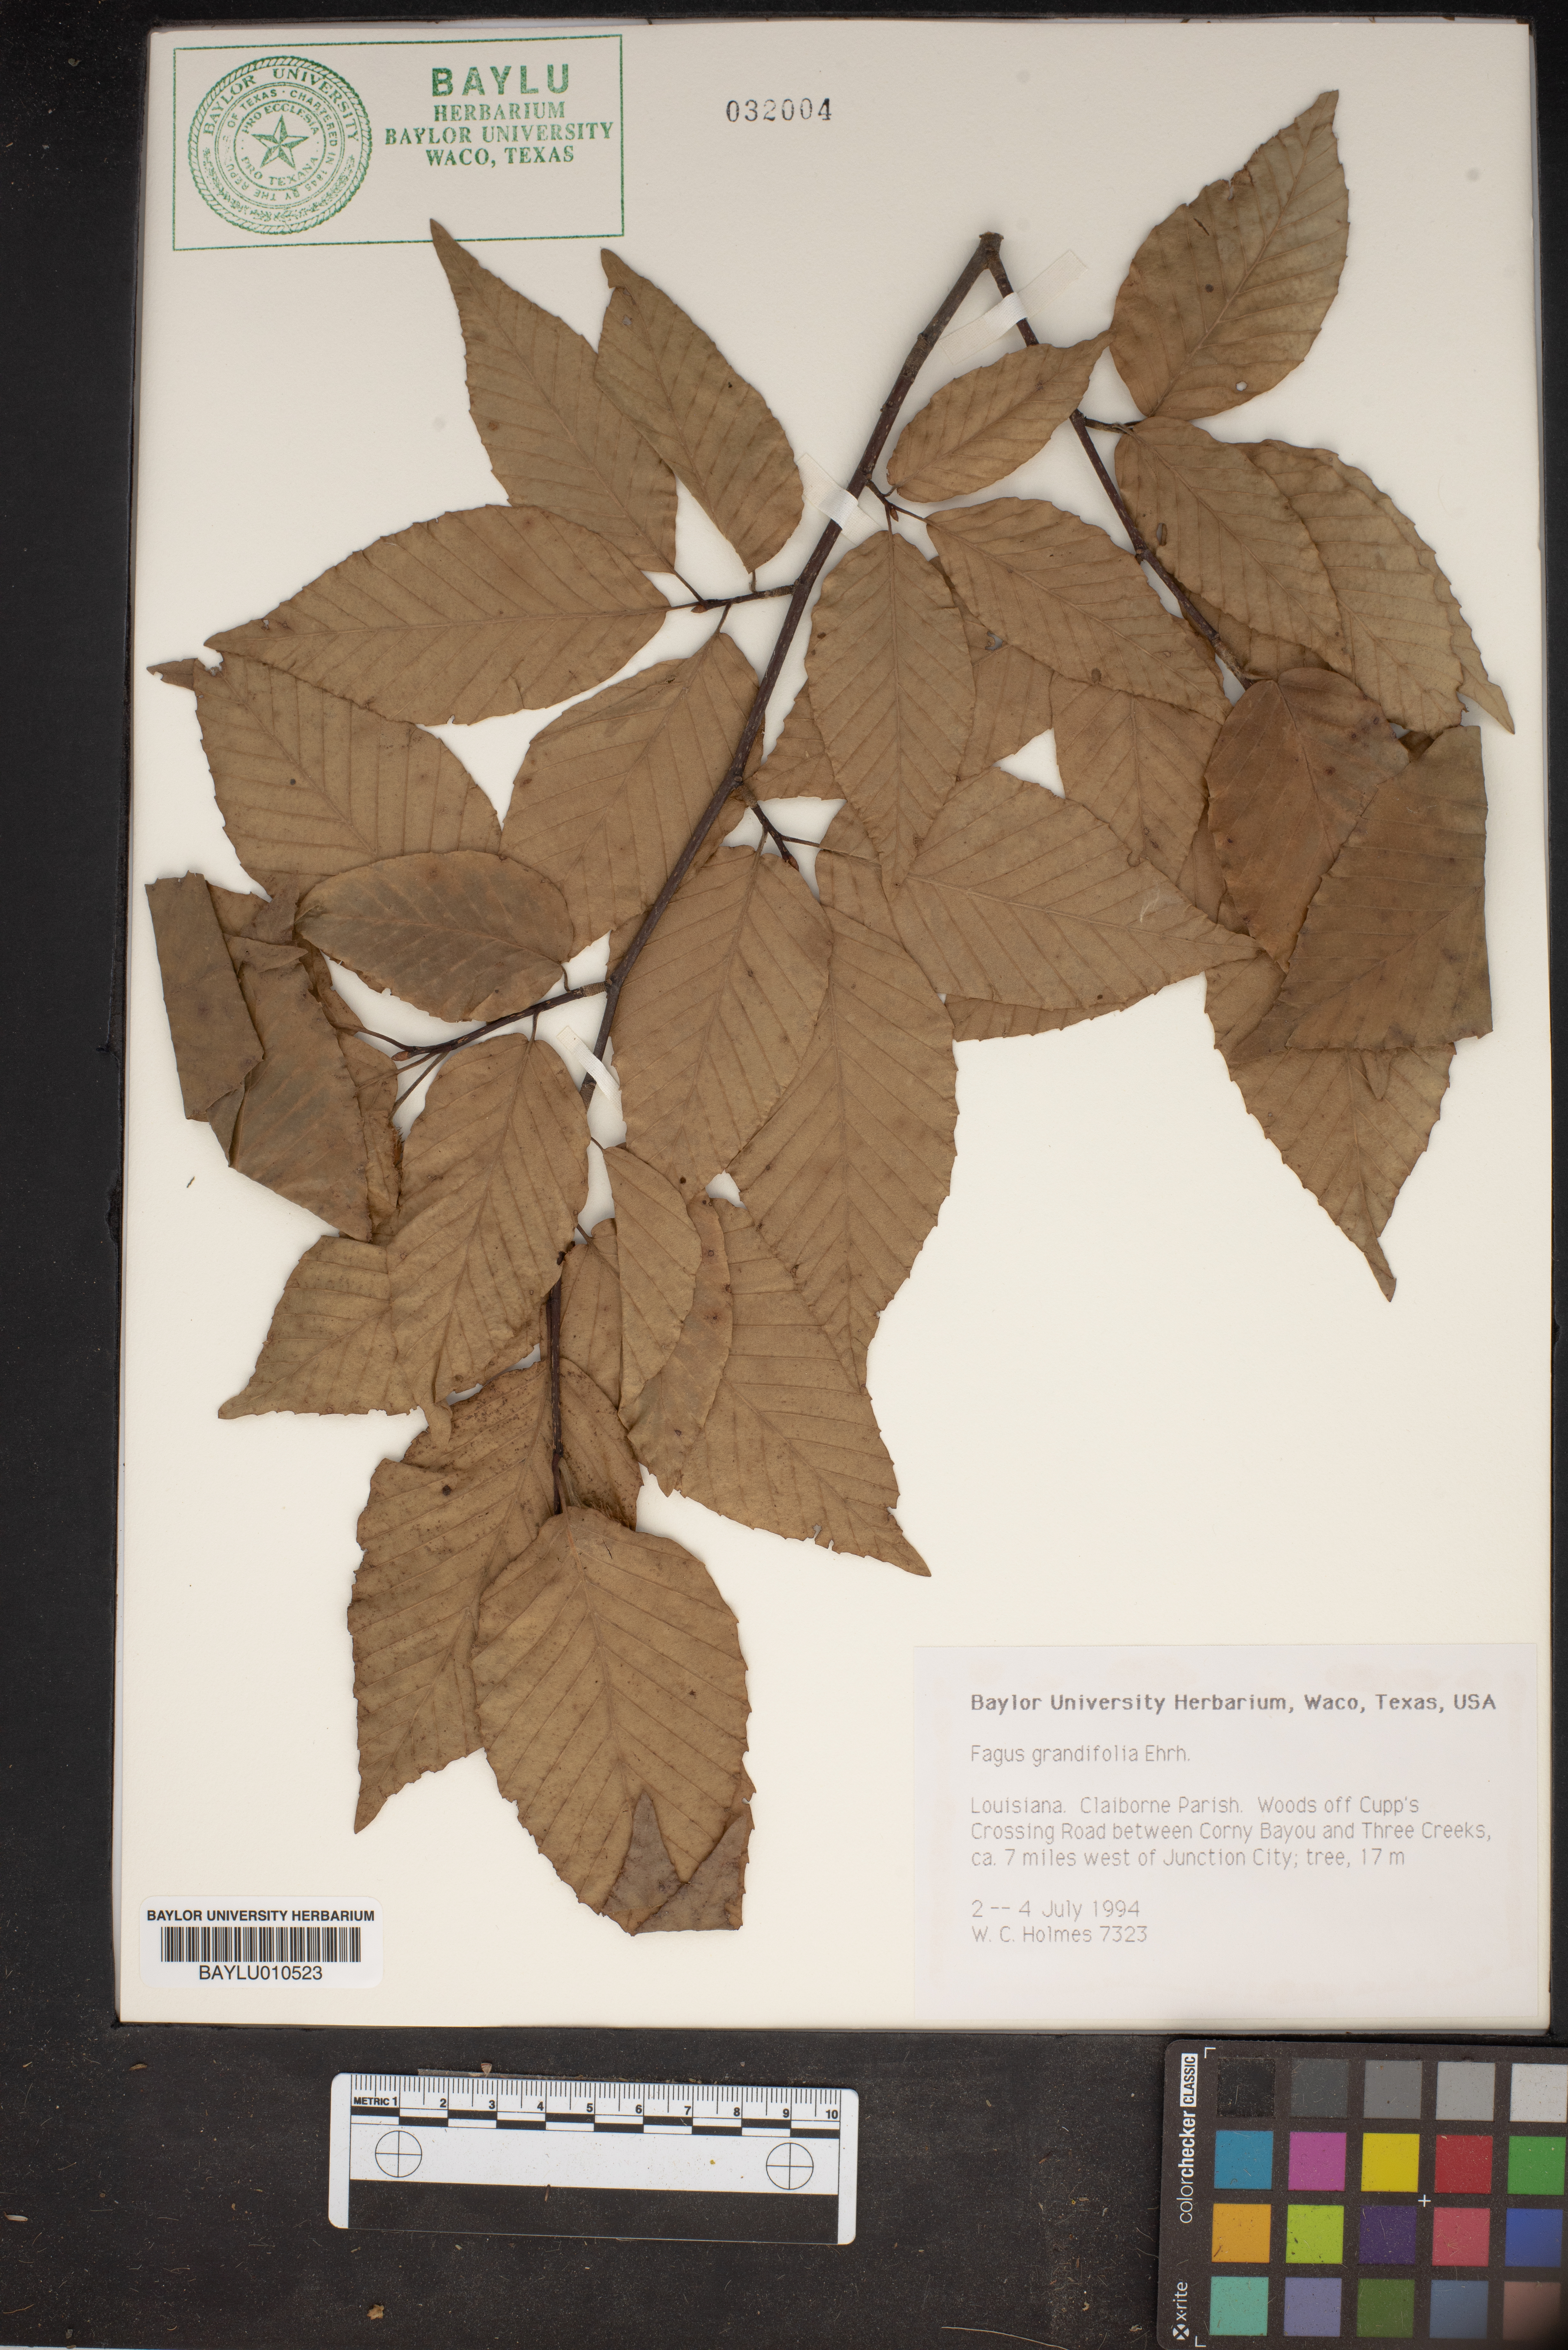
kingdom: Plantae
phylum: Tracheophyta
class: Magnoliopsida
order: Fagales
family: Fagaceae
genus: Fagus
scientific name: Fagus grandifolia
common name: American beech
